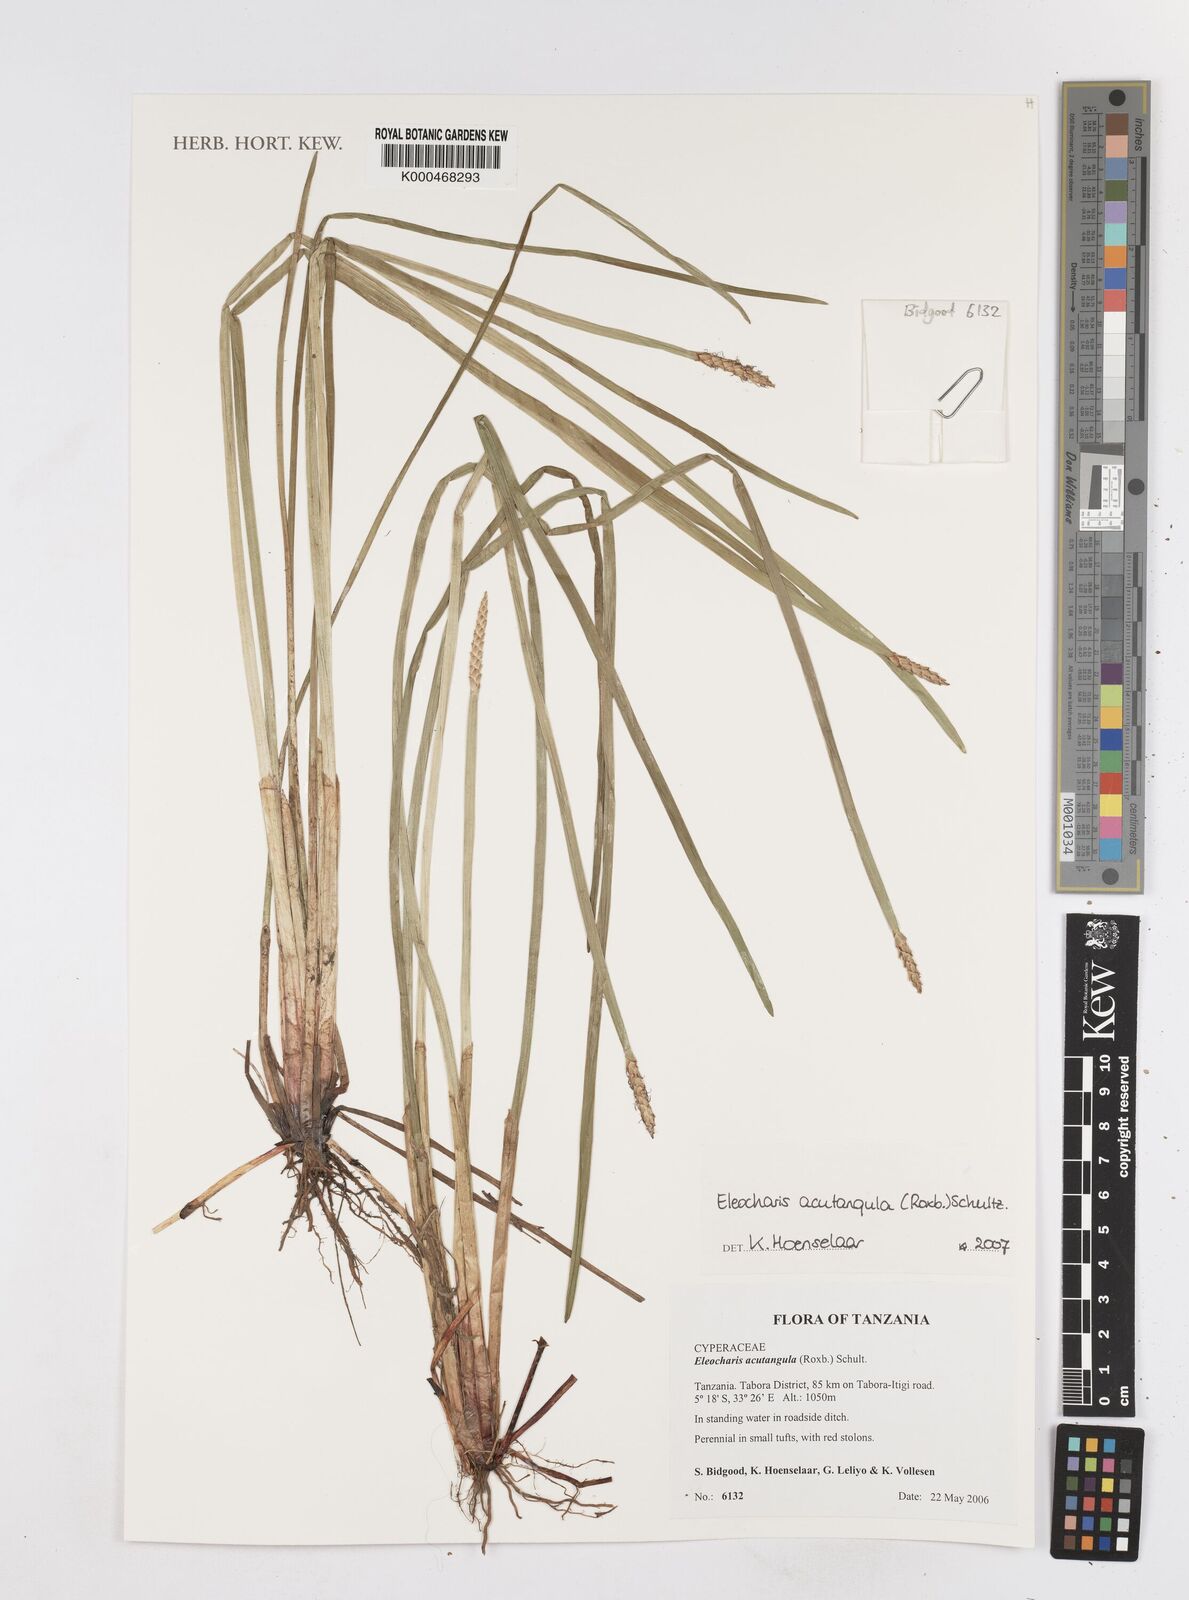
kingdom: Plantae
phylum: Tracheophyta
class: Liliopsida
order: Poales
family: Cyperaceae
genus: Eleocharis
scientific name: Eleocharis acutangula
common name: Acute spikerush
